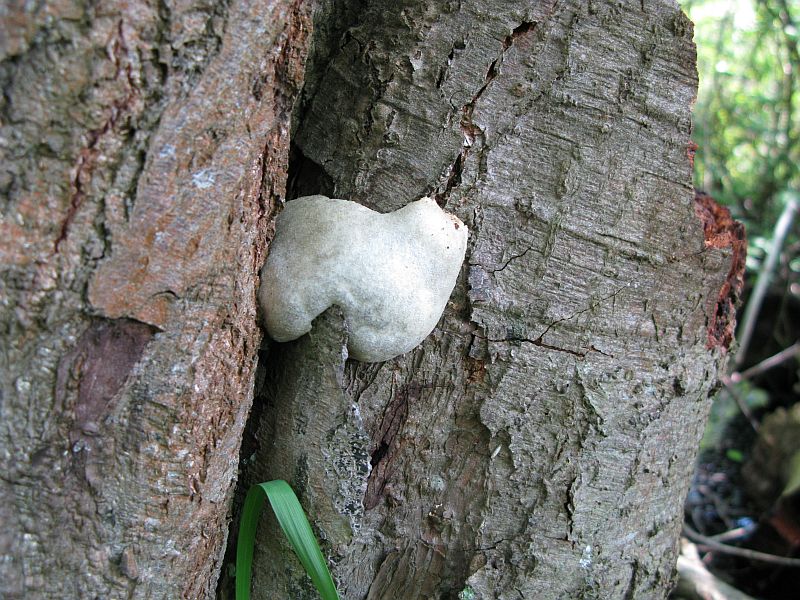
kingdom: Protozoa
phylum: Mycetozoa
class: Myxomycetes
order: Cribrariales
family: Tubiferaceae
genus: Reticularia
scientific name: Reticularia lycoperdon
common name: skinnende støvpude
